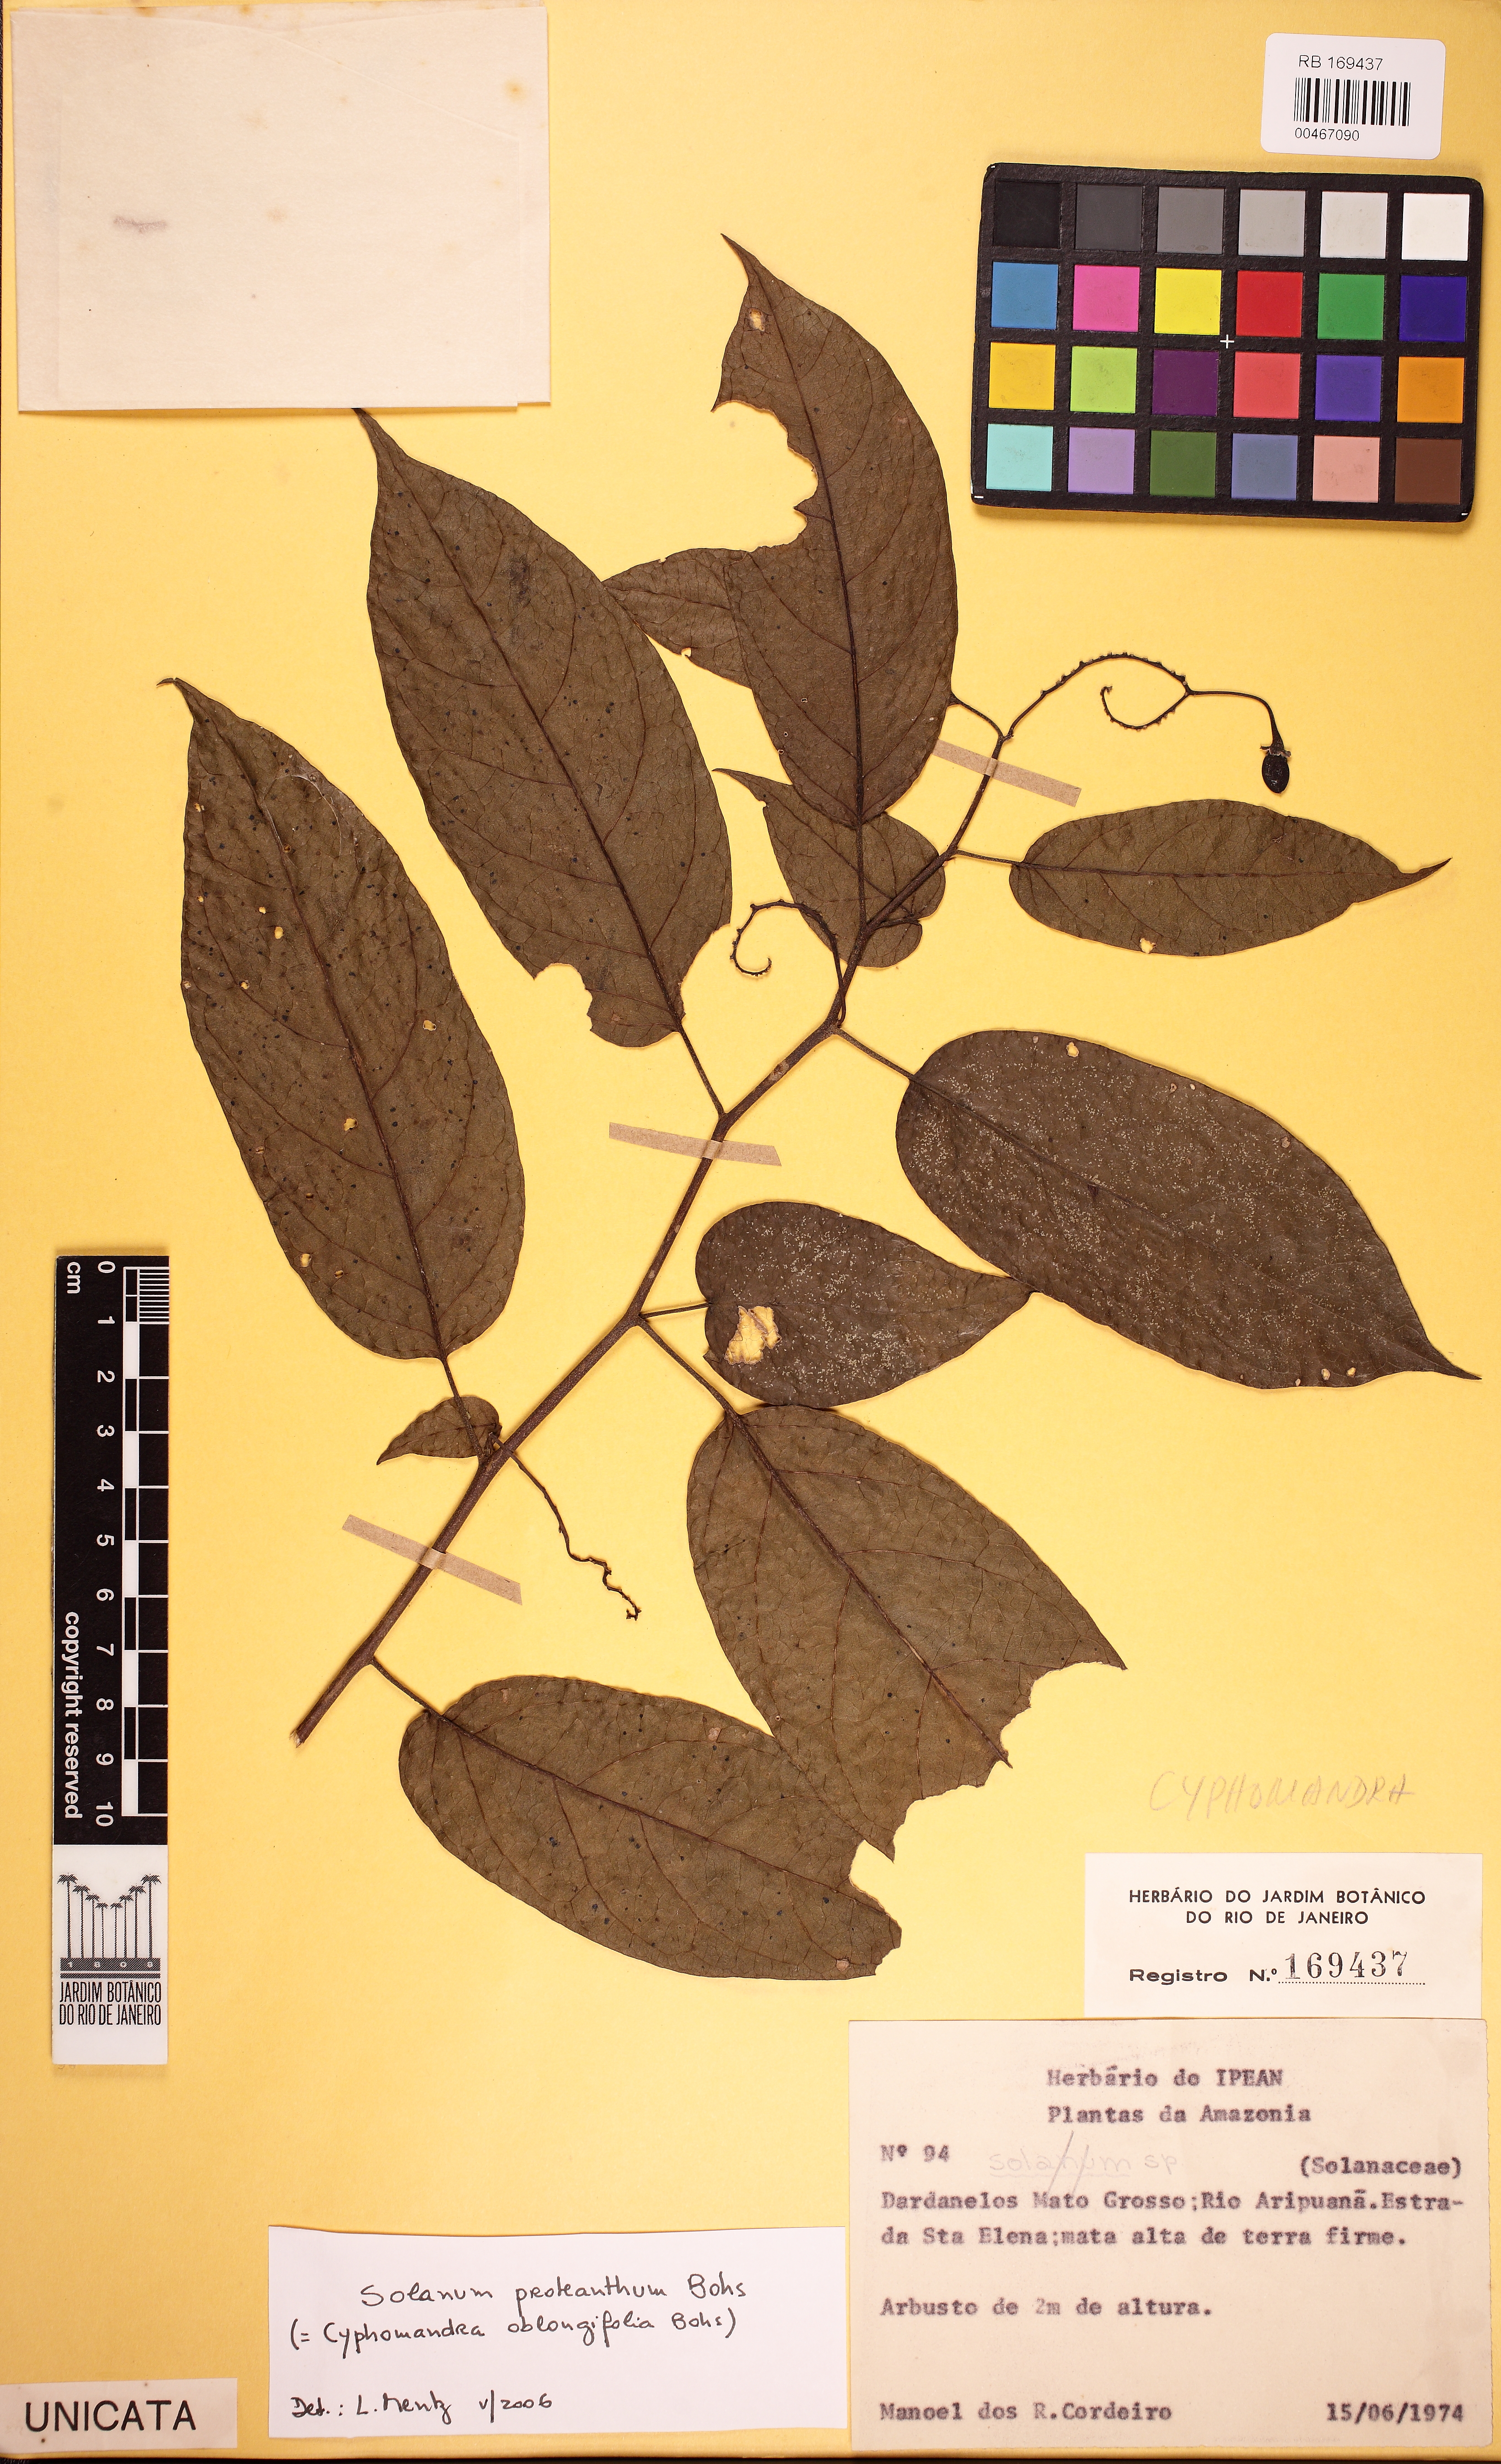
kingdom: Plantae
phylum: Tracheophyta
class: Magnoliopsida
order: Solanales
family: Solanaceae
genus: Solanum
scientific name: Solanum proteanthum
